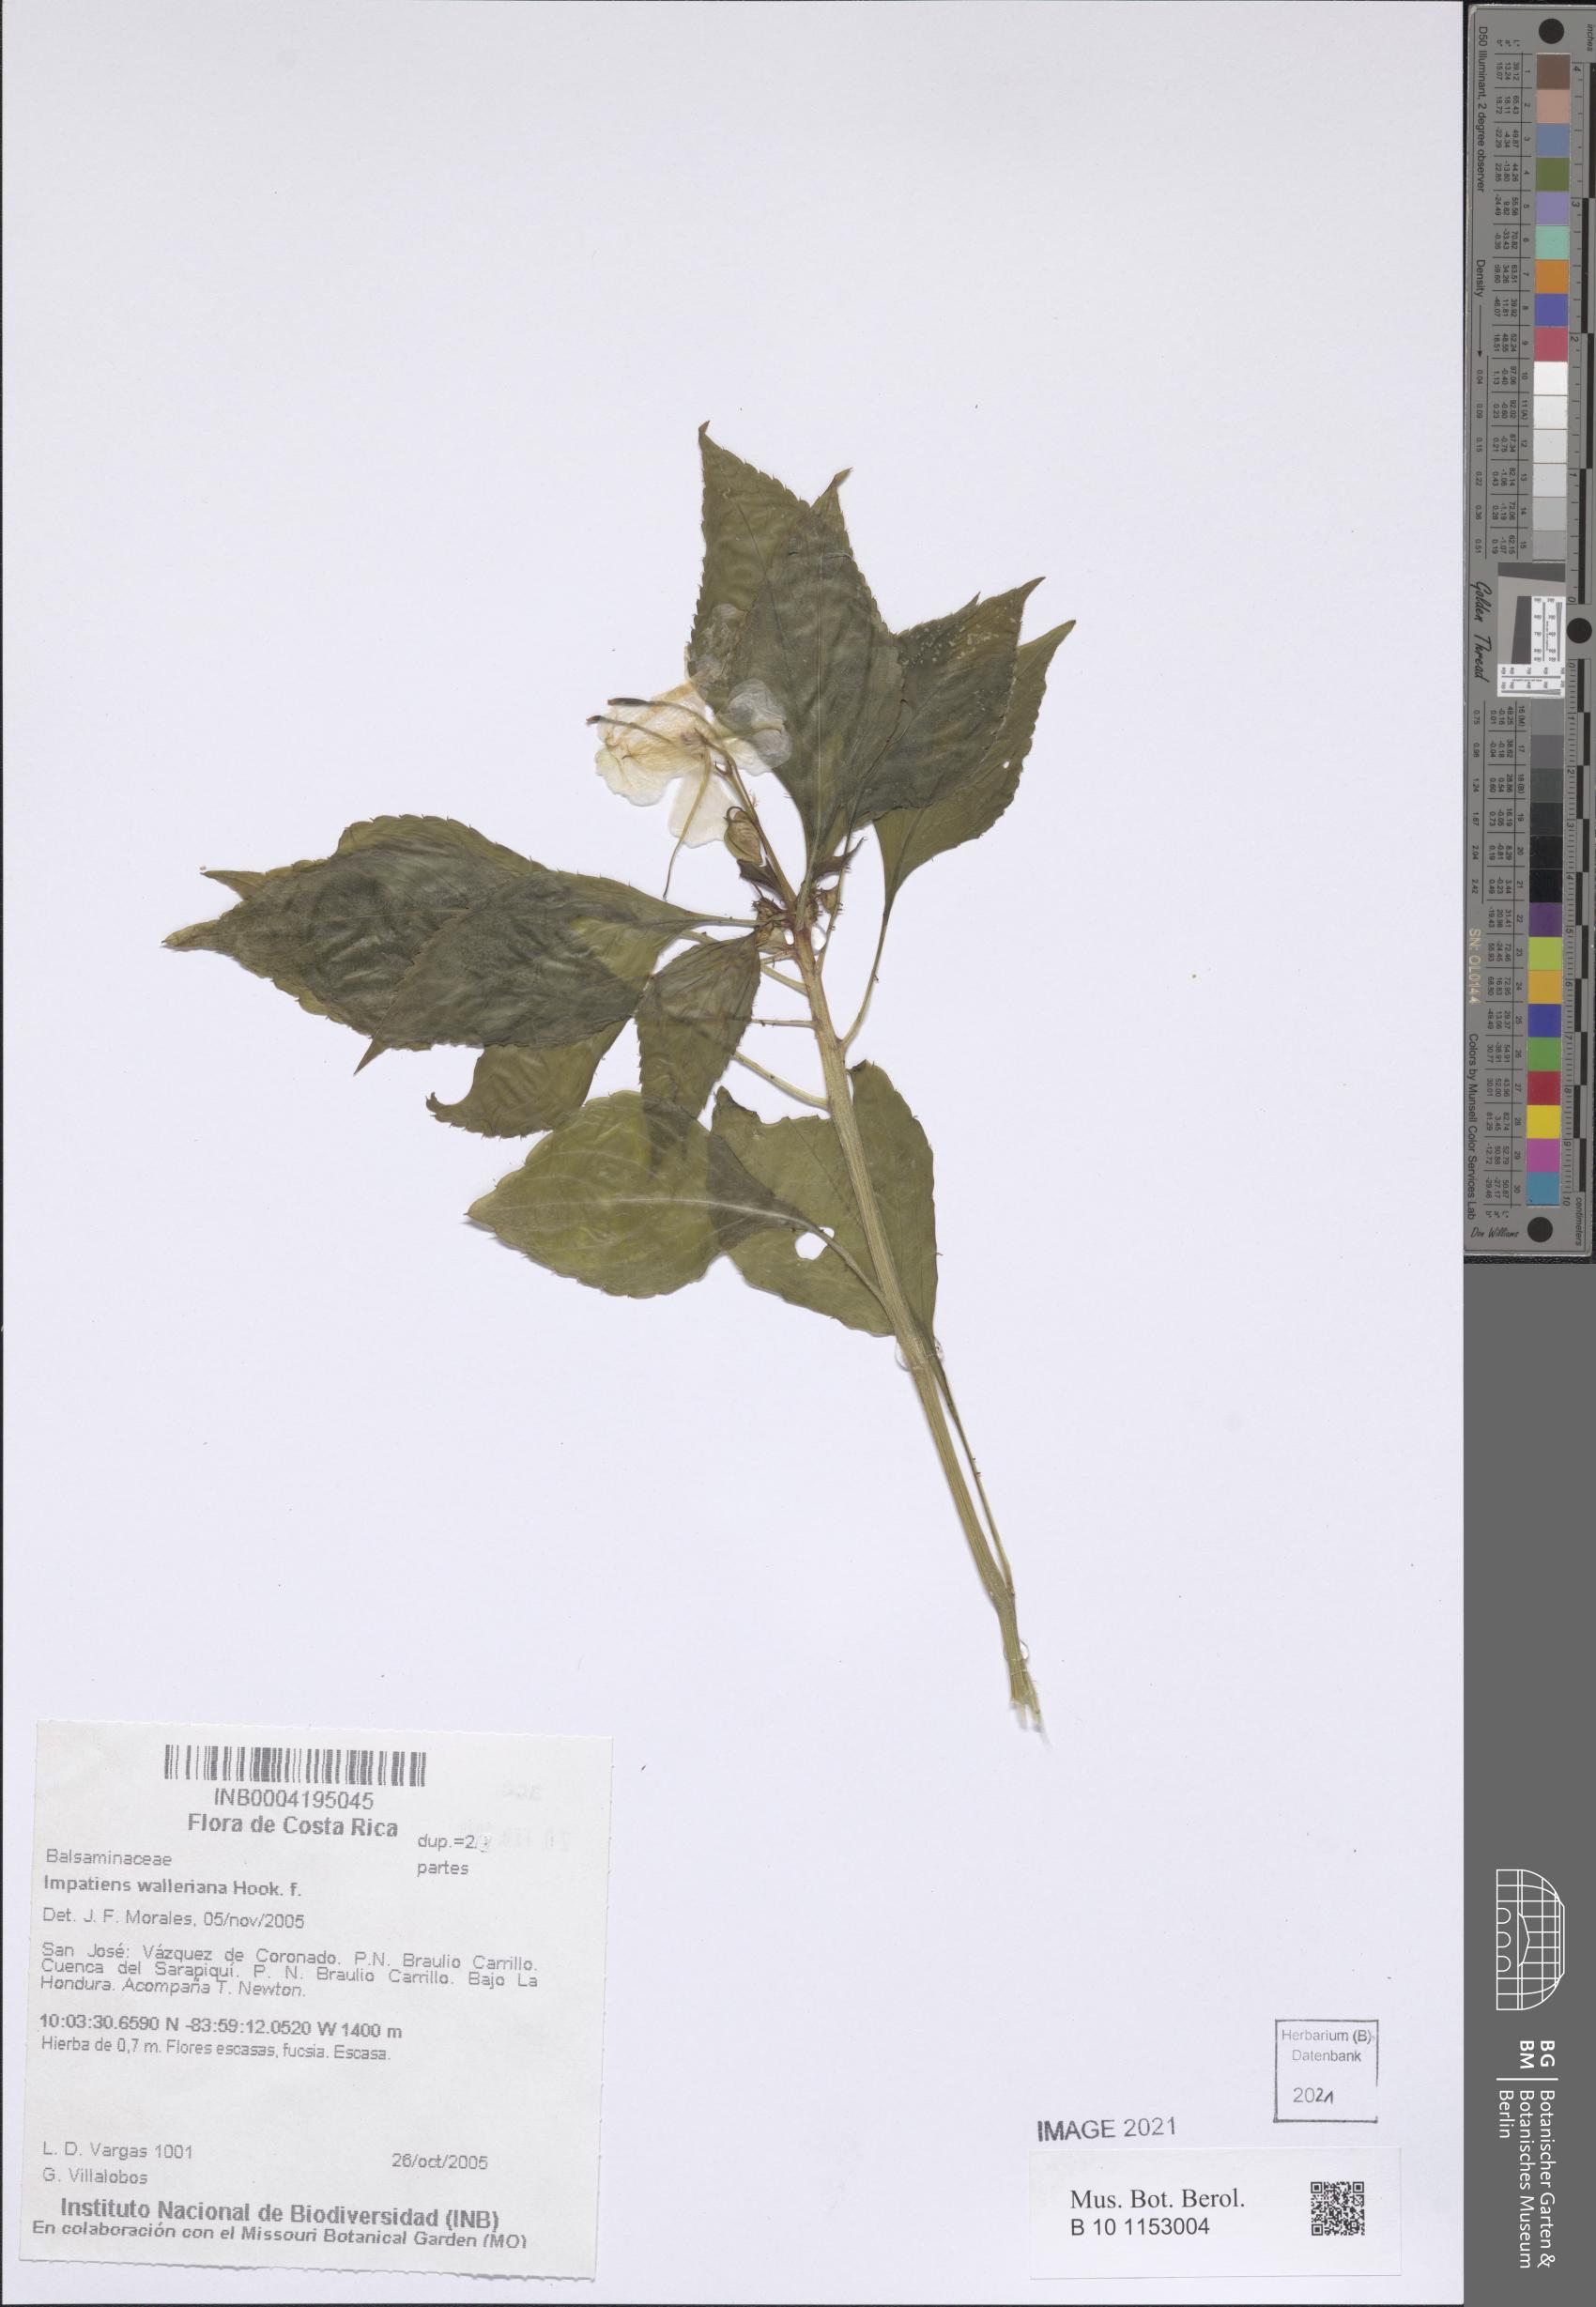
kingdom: Plantae
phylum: Tracheophyta
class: Magnoliopsida
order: Ericales
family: Balsaminaceae
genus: Impatiens
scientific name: Impatiens walleriana
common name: Buzzy lizzy
